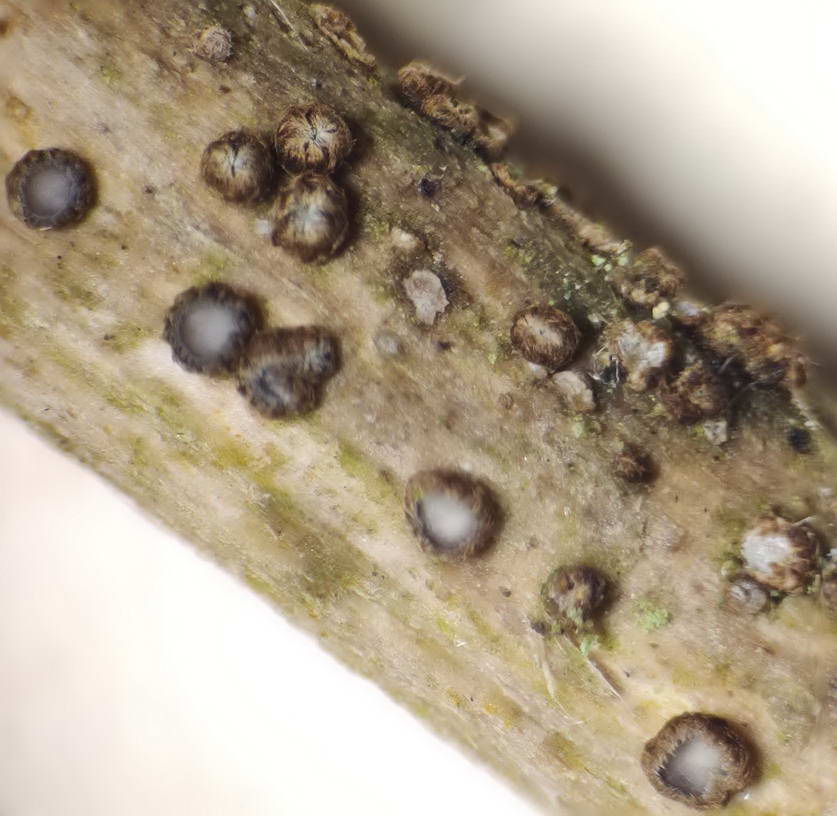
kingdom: Fungi
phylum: Ascomycota
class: Leotiomycetes
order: Helotiales
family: Solenopeziaceae
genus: Trichopezizella
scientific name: Trichopezizella barbata
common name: skægget frynseskive
